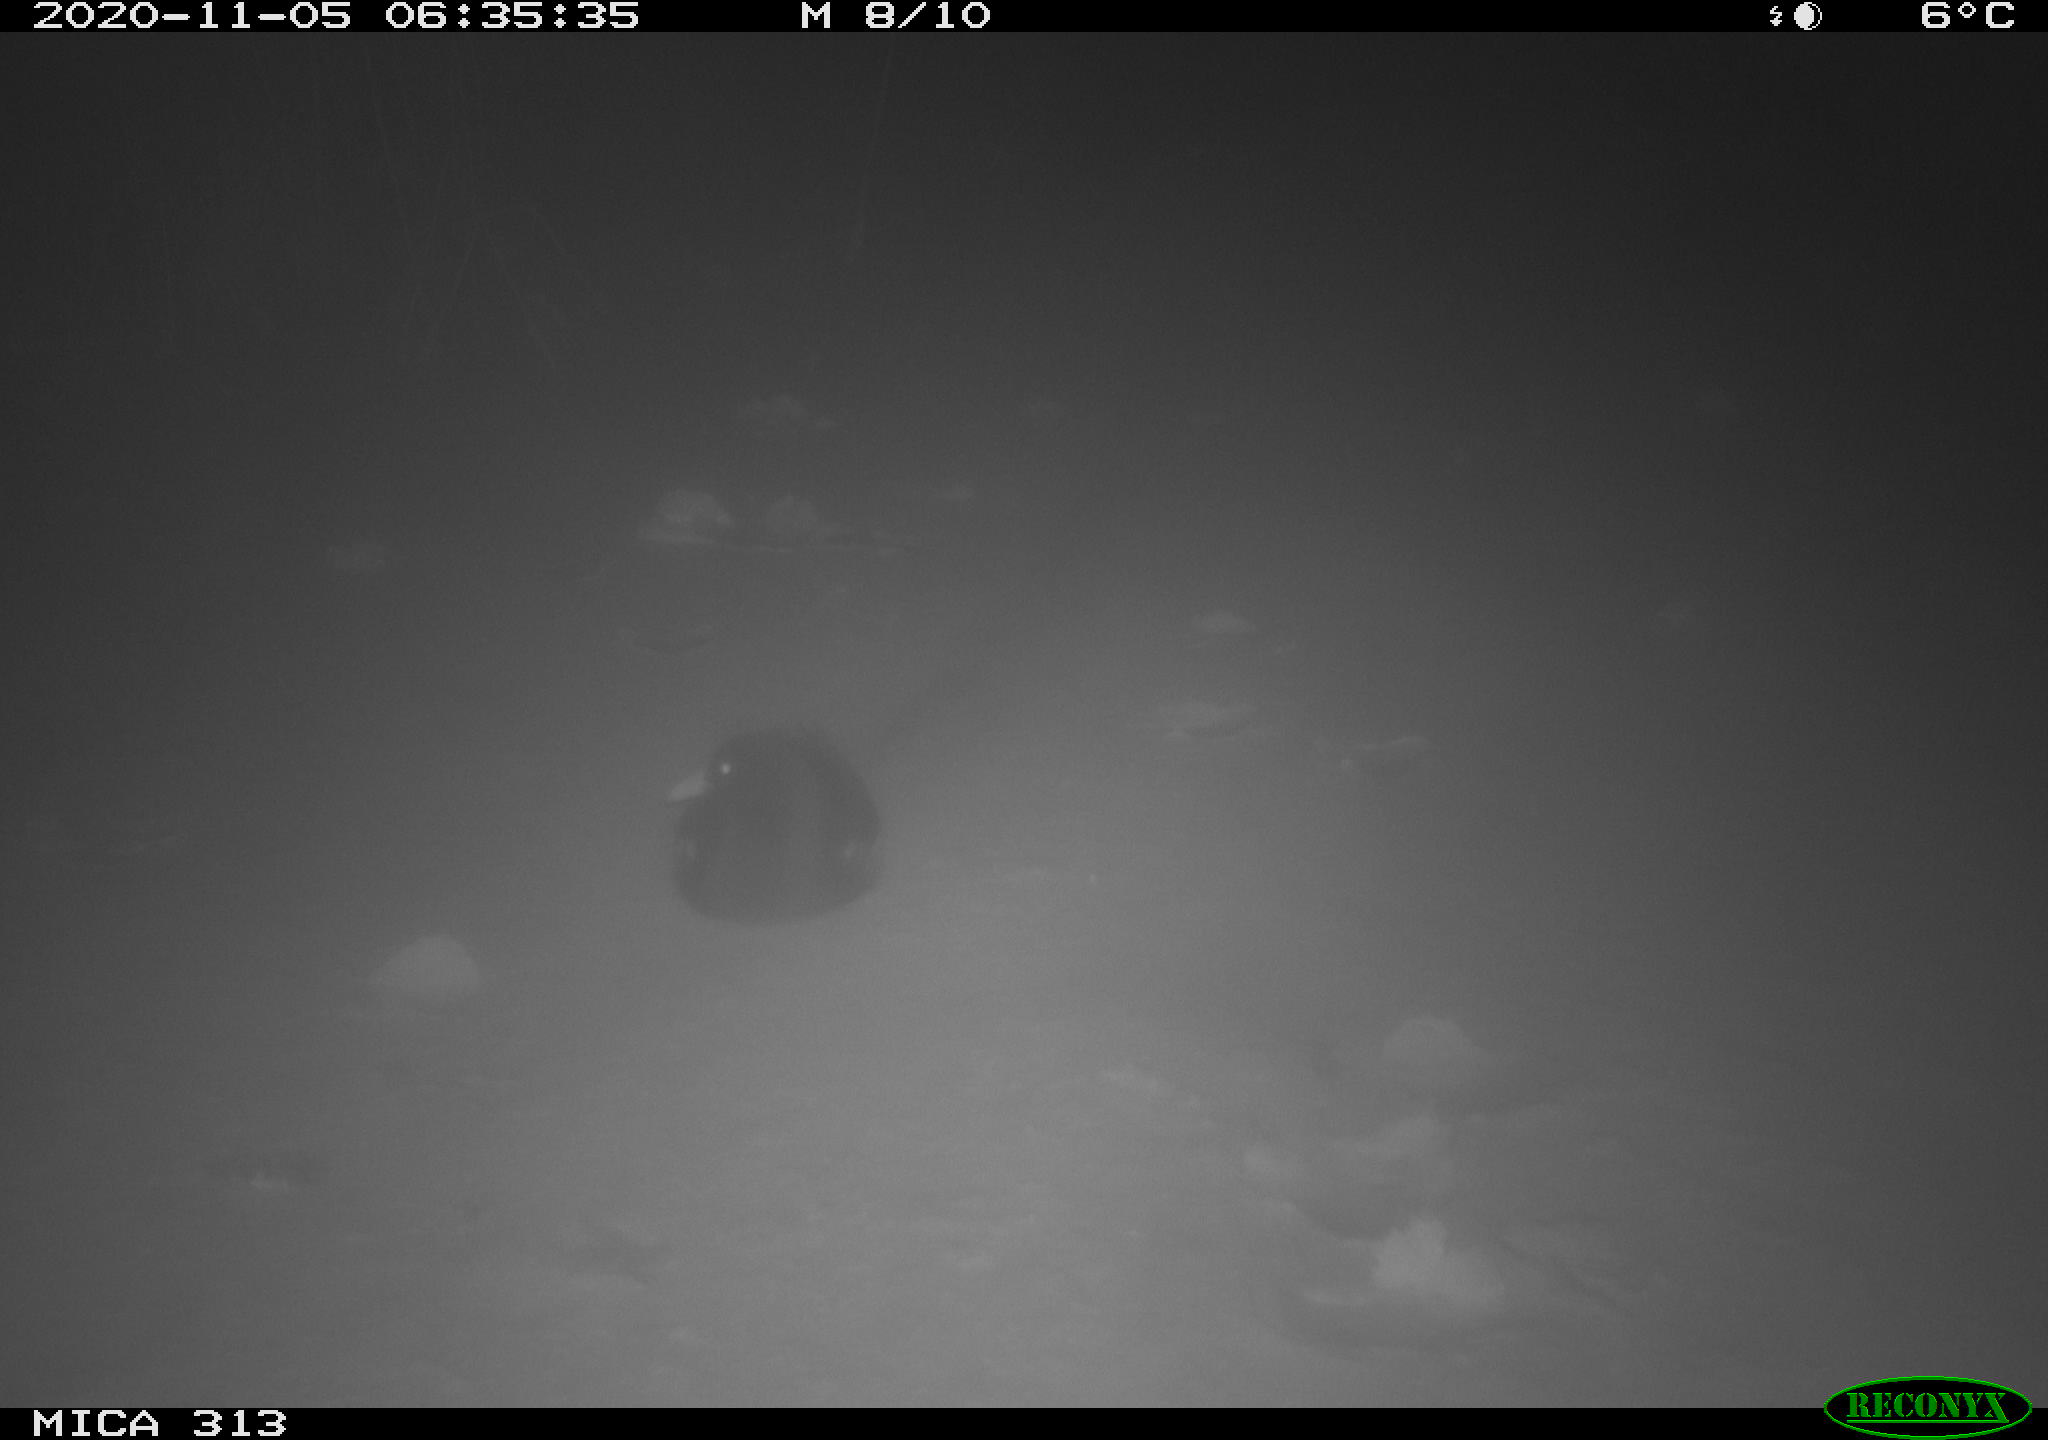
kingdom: Animalia
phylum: Chordata
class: Aves
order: Gruiformes
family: Rallidae
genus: Fulica
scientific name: Fulica atra
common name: Eurasian coot
